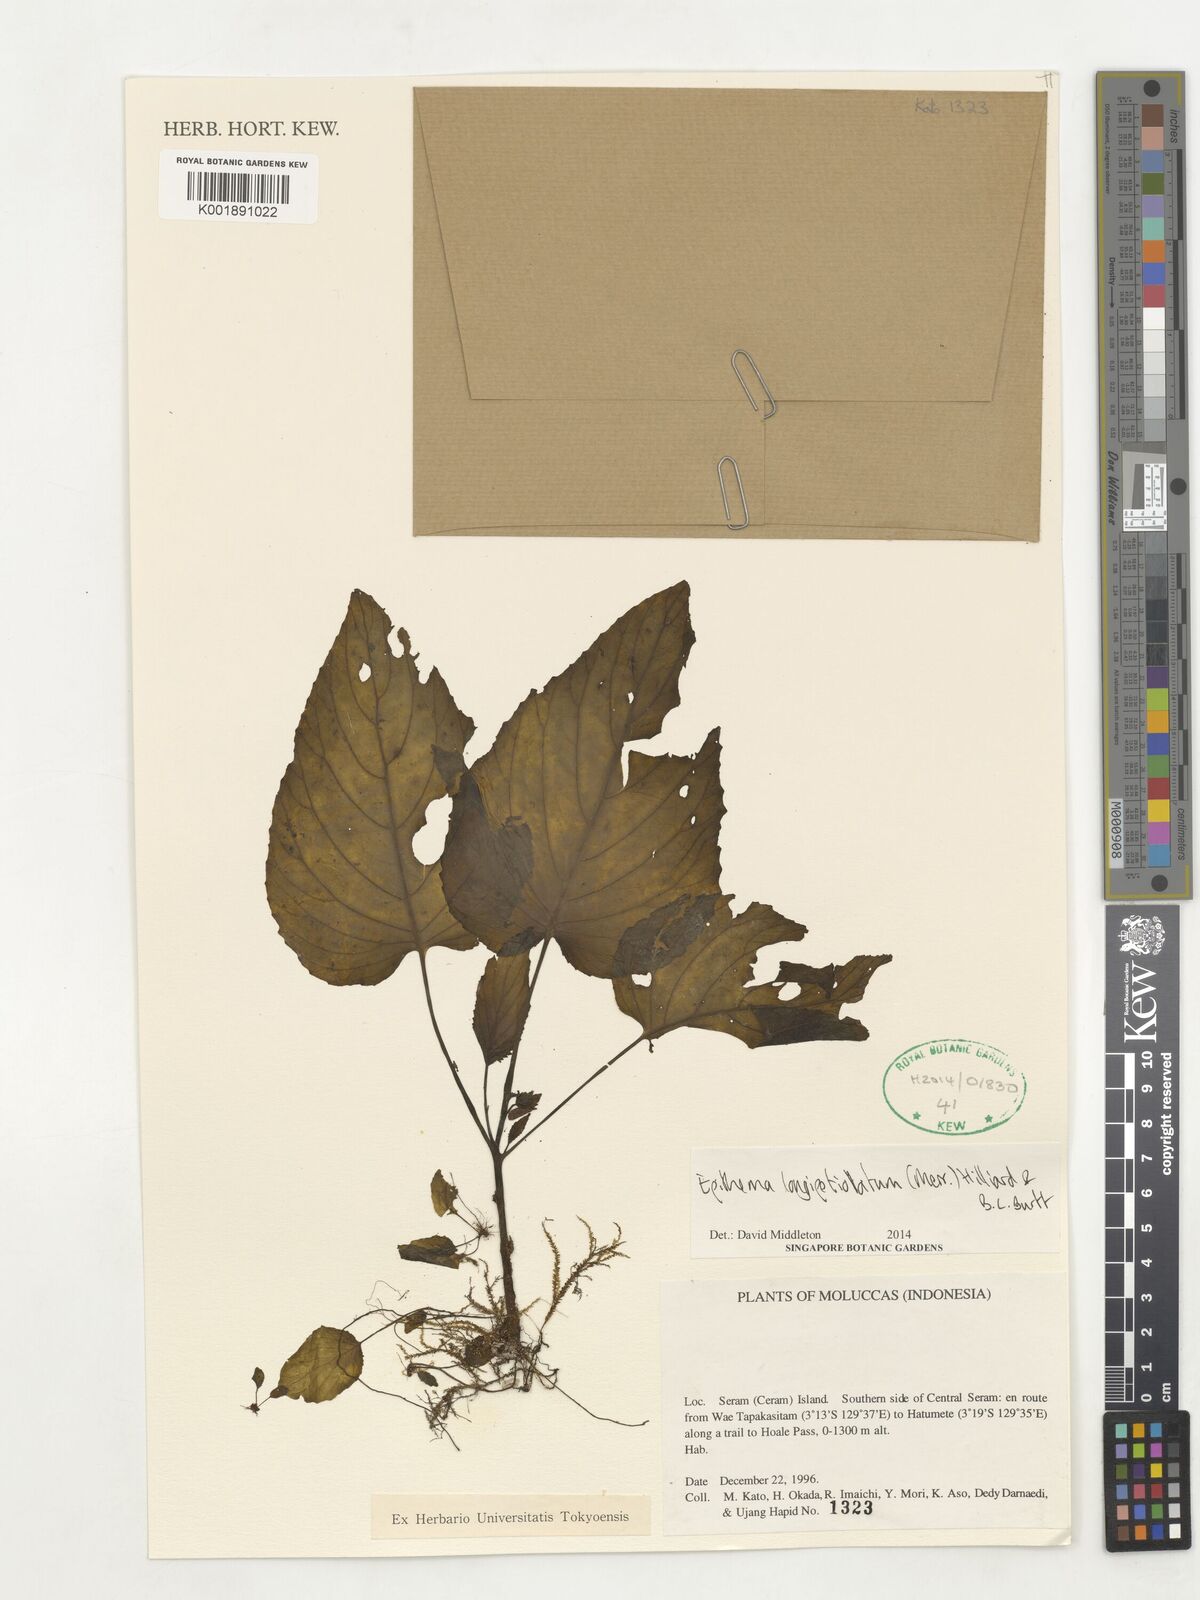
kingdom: Plantae
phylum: Tracheophyta
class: Magnoliopsida
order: Lamiales
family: Gesneriaceae
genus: Epithema
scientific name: Epithema longipetiolatum
